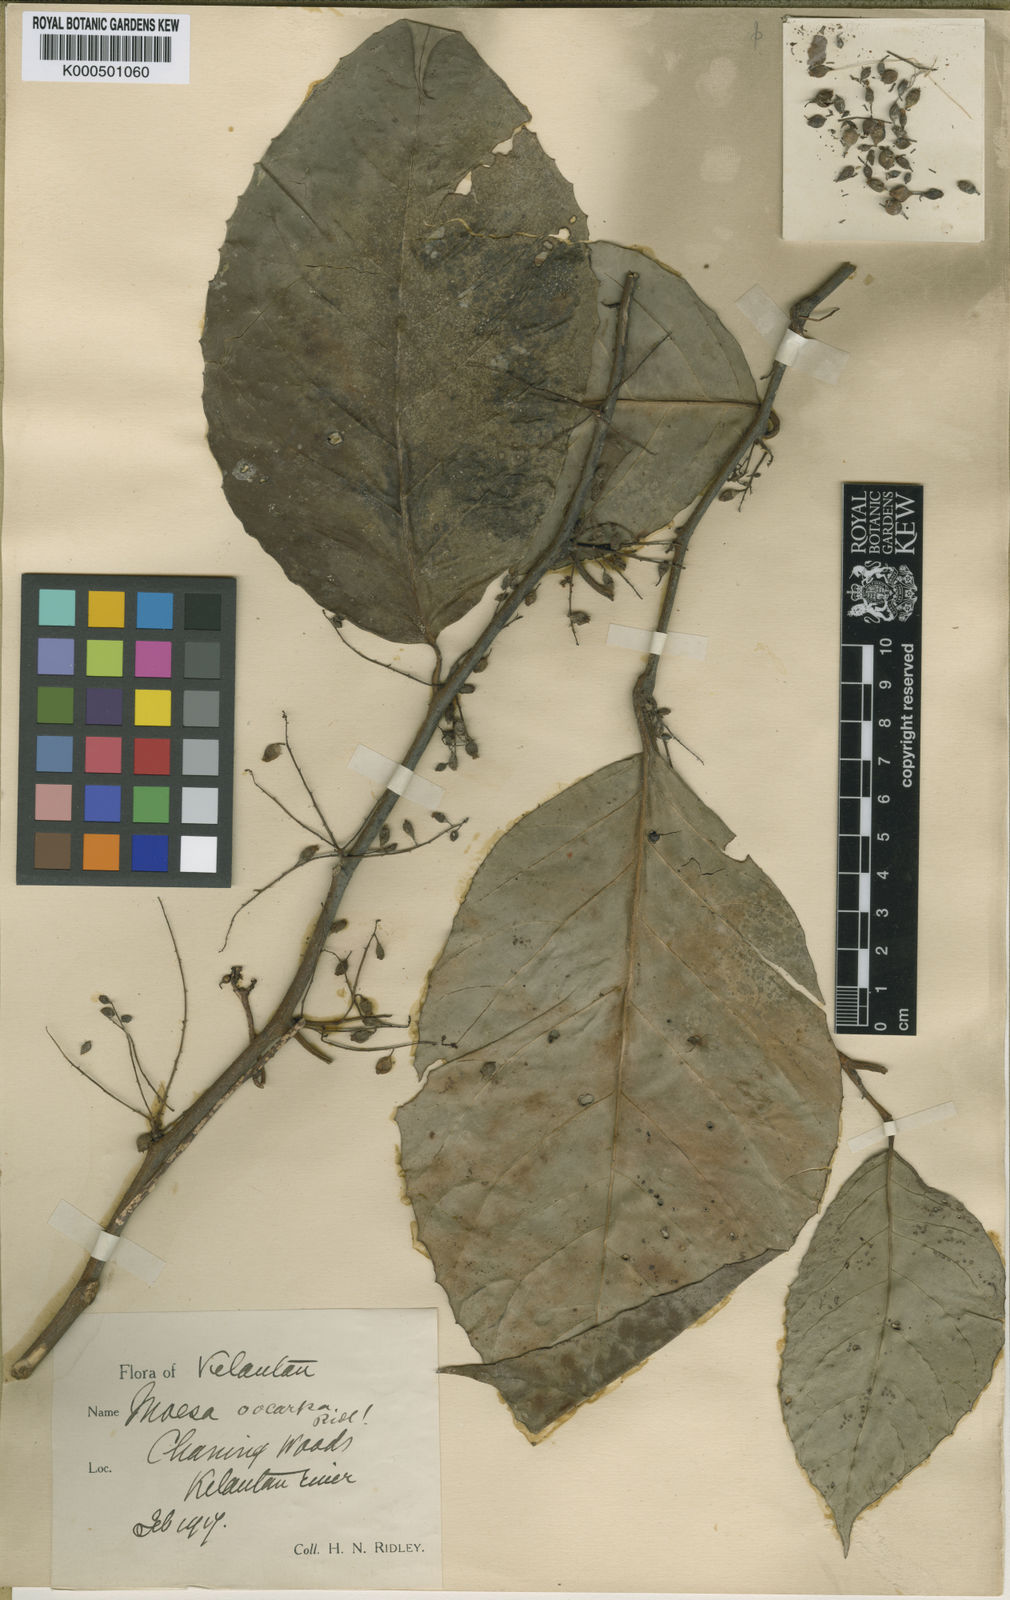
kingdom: Plantae
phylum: Tracheophyta
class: Magnoliopsida
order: Ericales
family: Primulaceae
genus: Maesa
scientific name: Maesa pahangiana
